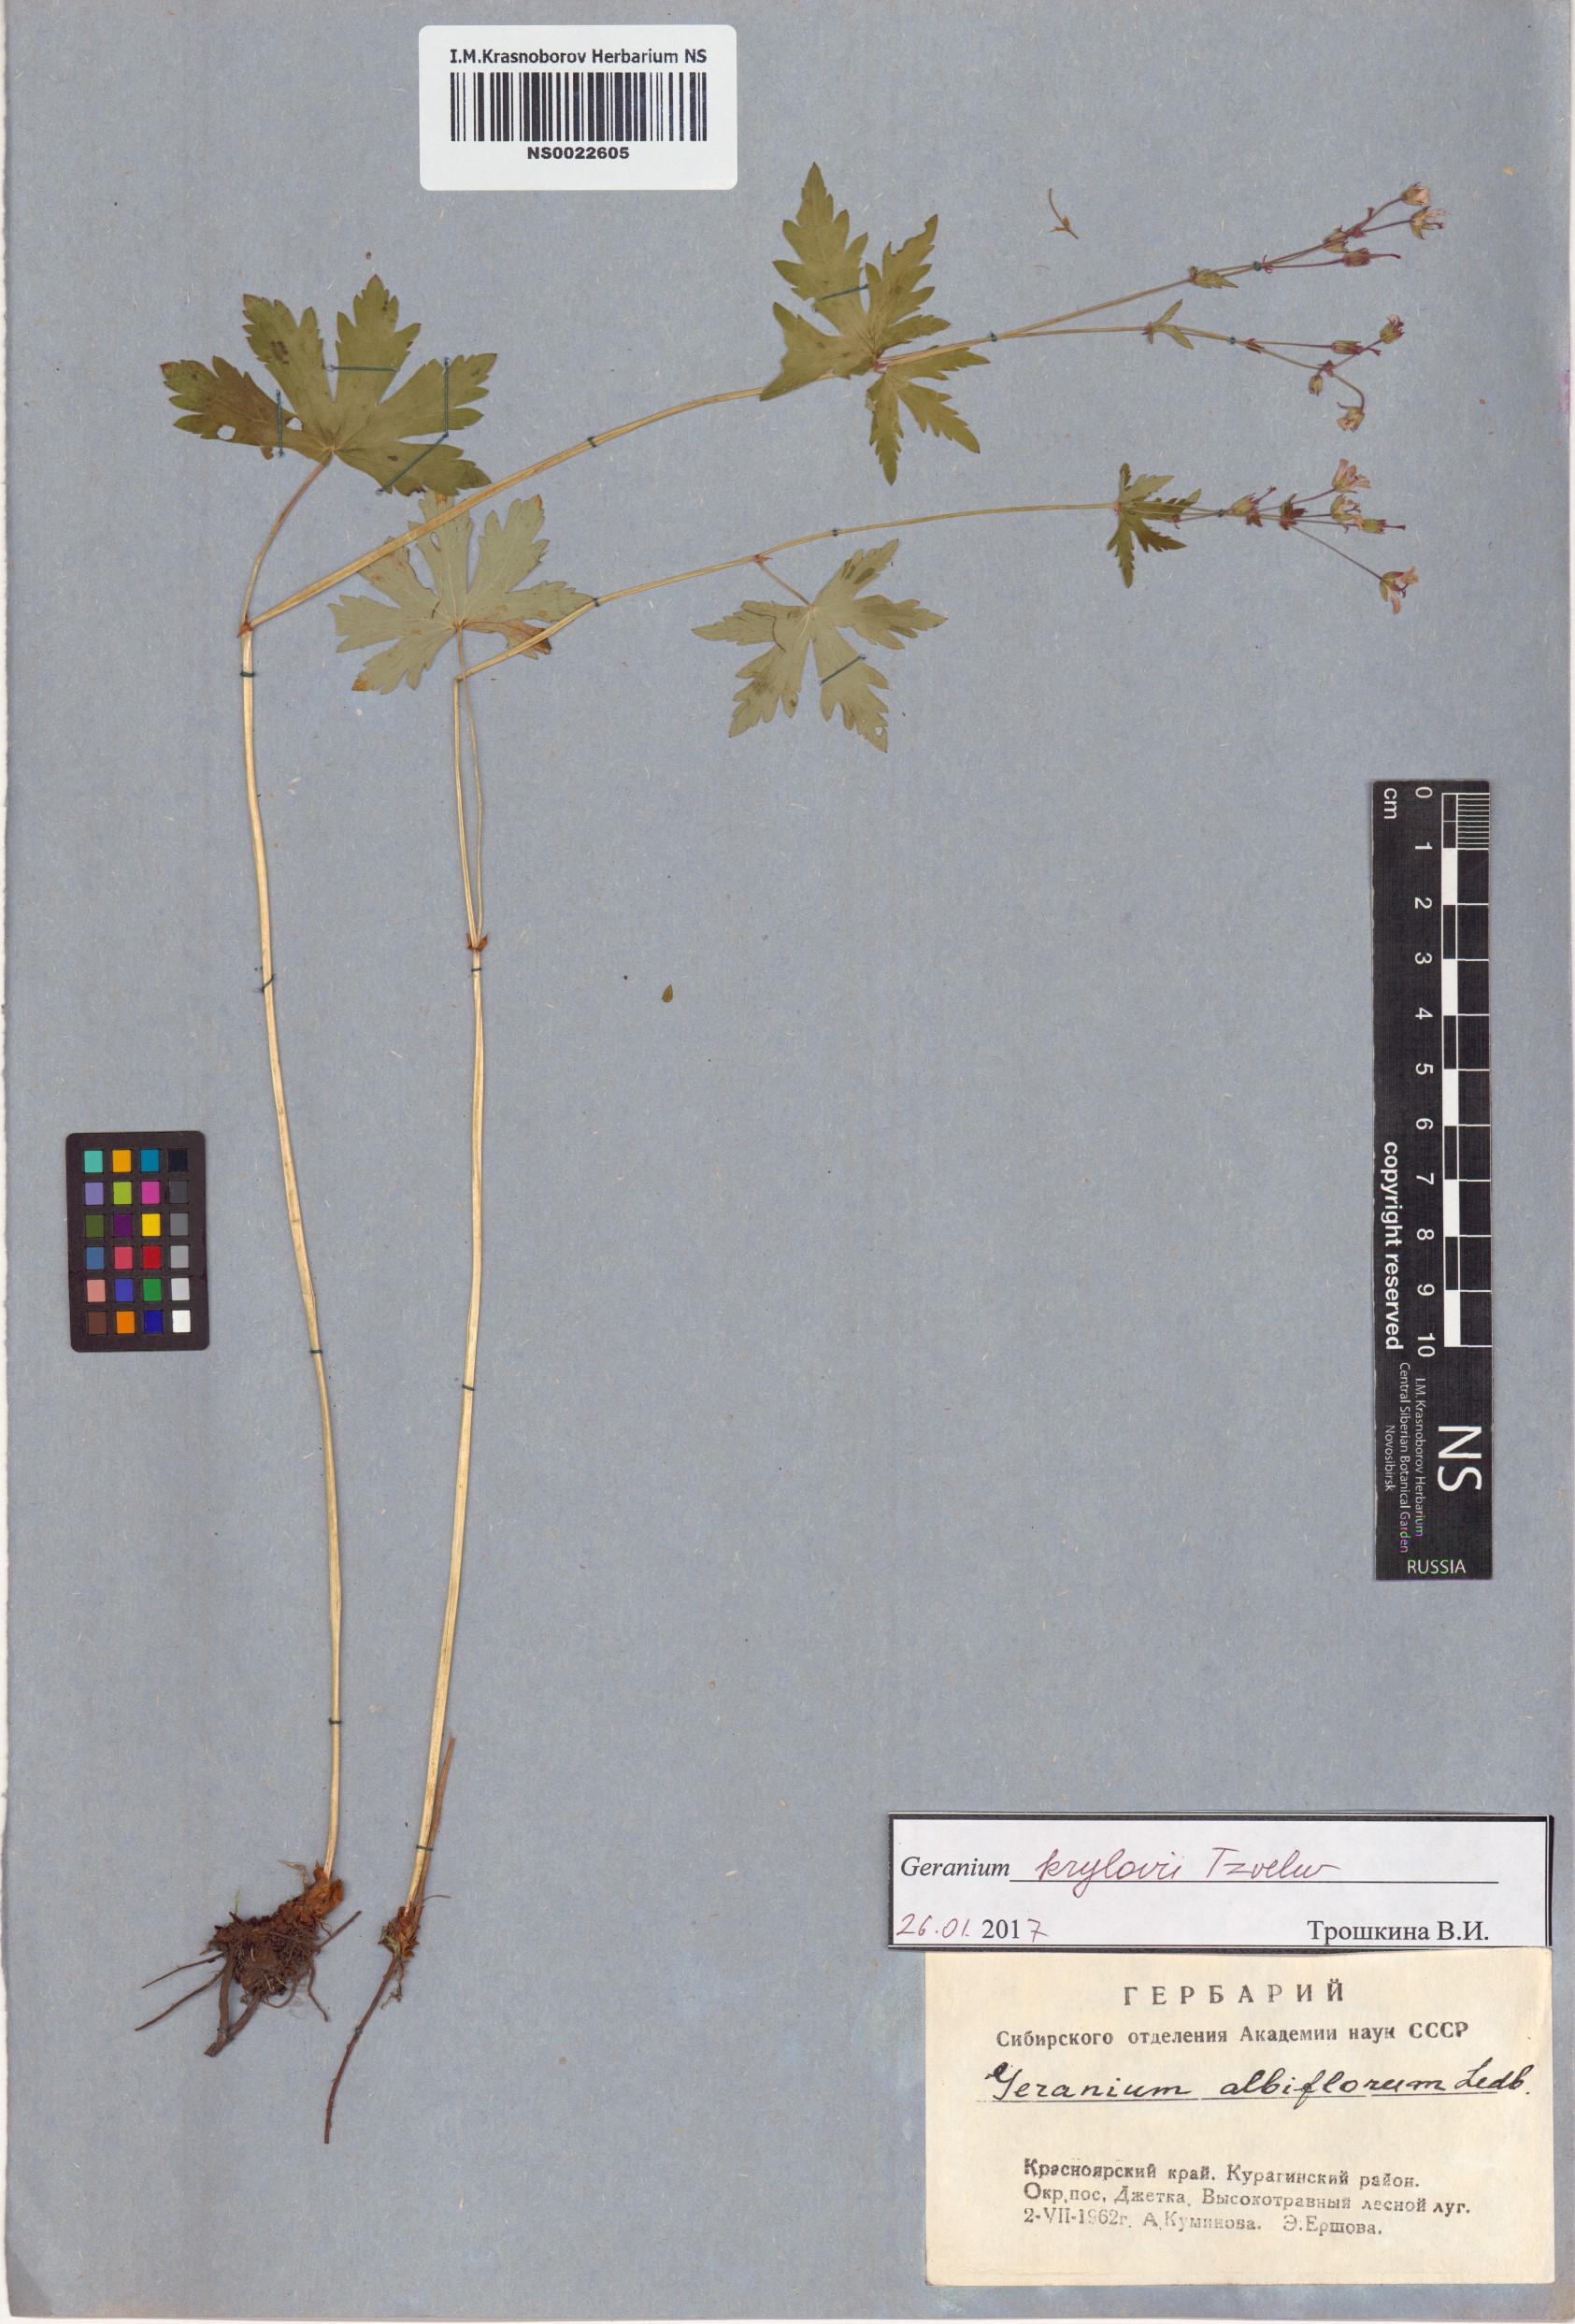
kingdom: Plantae
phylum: Tracheophyta
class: Magnoliopsida
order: Geraniales
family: Geraniaceae
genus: Geranium
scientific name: Geranium sylvaticum
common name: Wood crane's-bill
